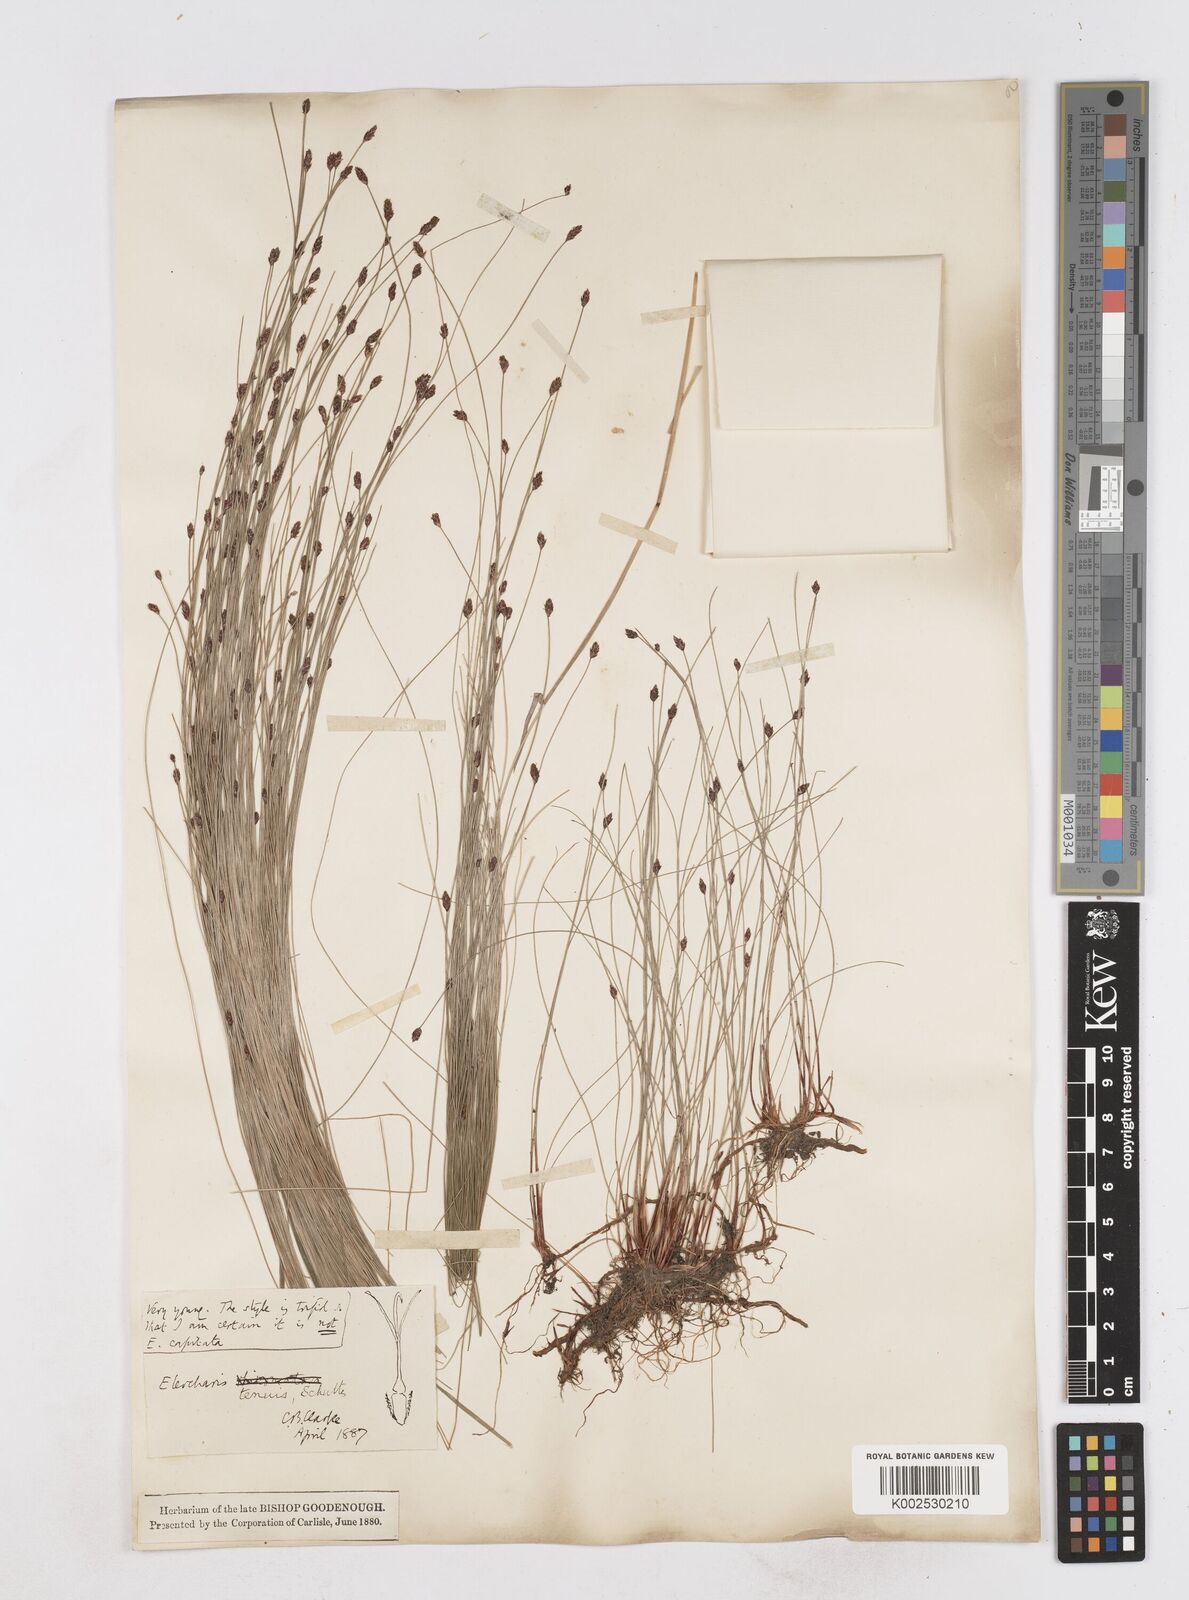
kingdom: Plantae
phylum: Tracheophyta
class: Liliopsida
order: Poales
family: Cyperaceae
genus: Eleocharis
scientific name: Eleocharis tenuis
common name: Dog's hair
